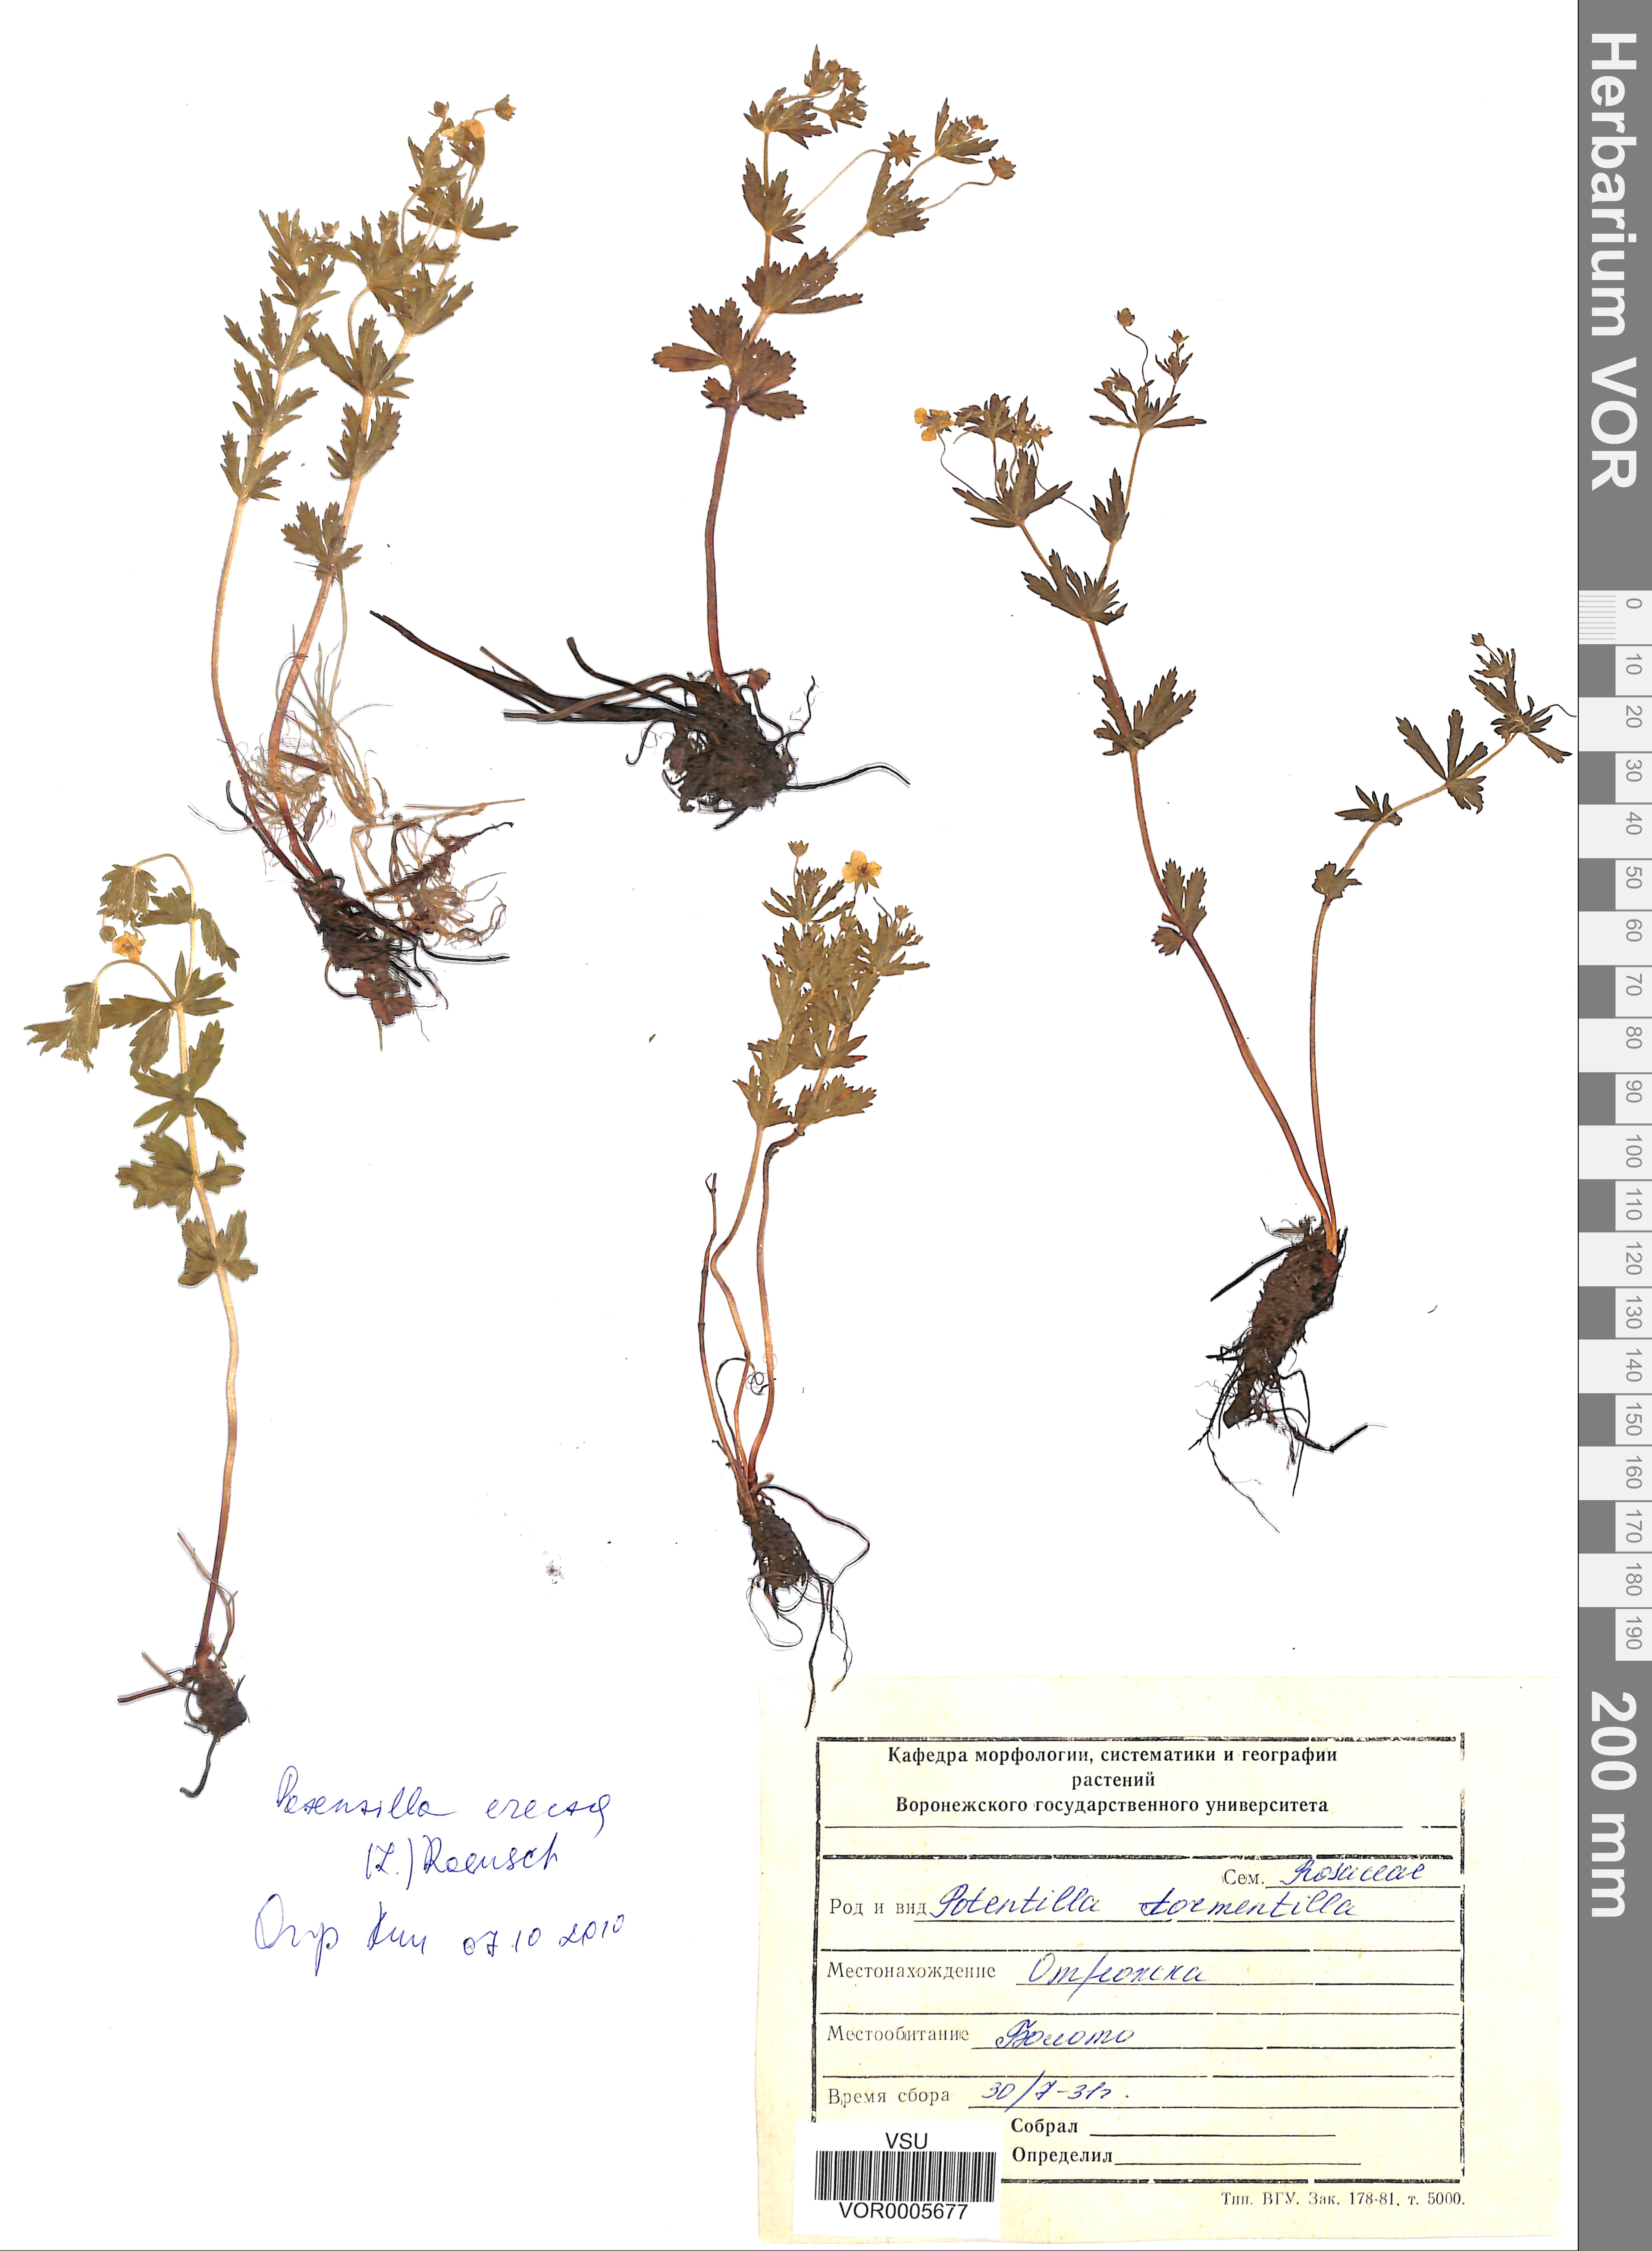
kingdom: Plantae
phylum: Tracheophyta
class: Magnoliopsida
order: Rosales
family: Rosaceae
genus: Potentilla
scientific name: Potentilla erecta
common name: Tormentil
